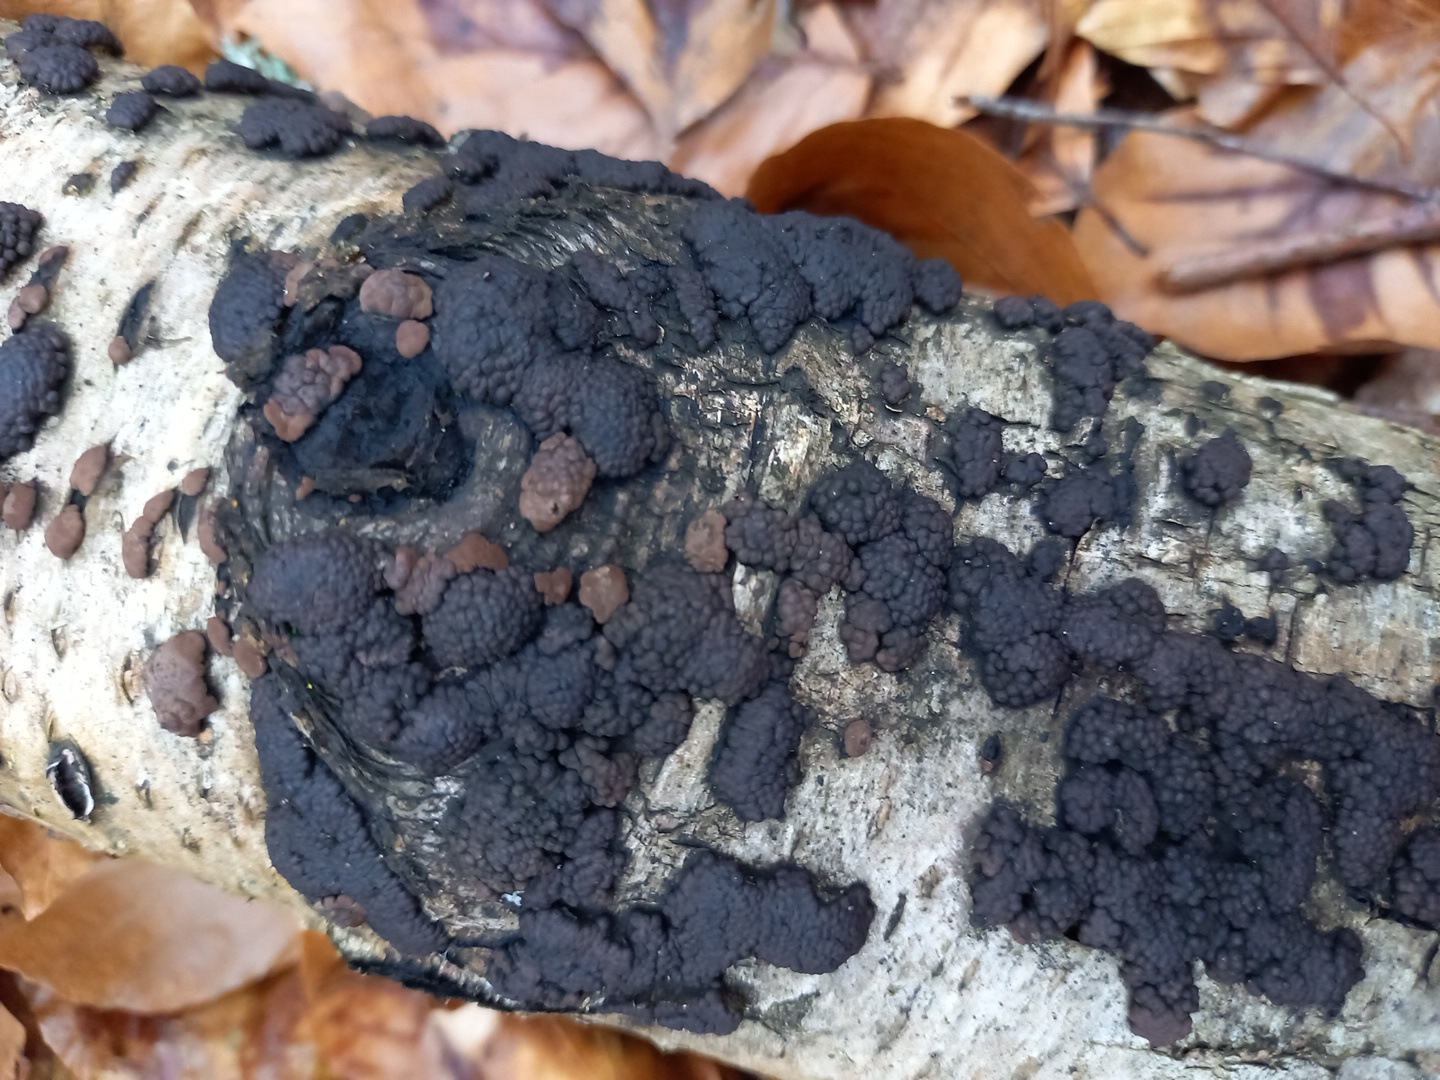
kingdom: Fungi
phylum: Ascomycota
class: Sordariomycetes
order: Xylariales
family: Hypoxylaceae
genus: Jackrogersella
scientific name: Jackrogersella multiformis
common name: foranderlig kulbær
